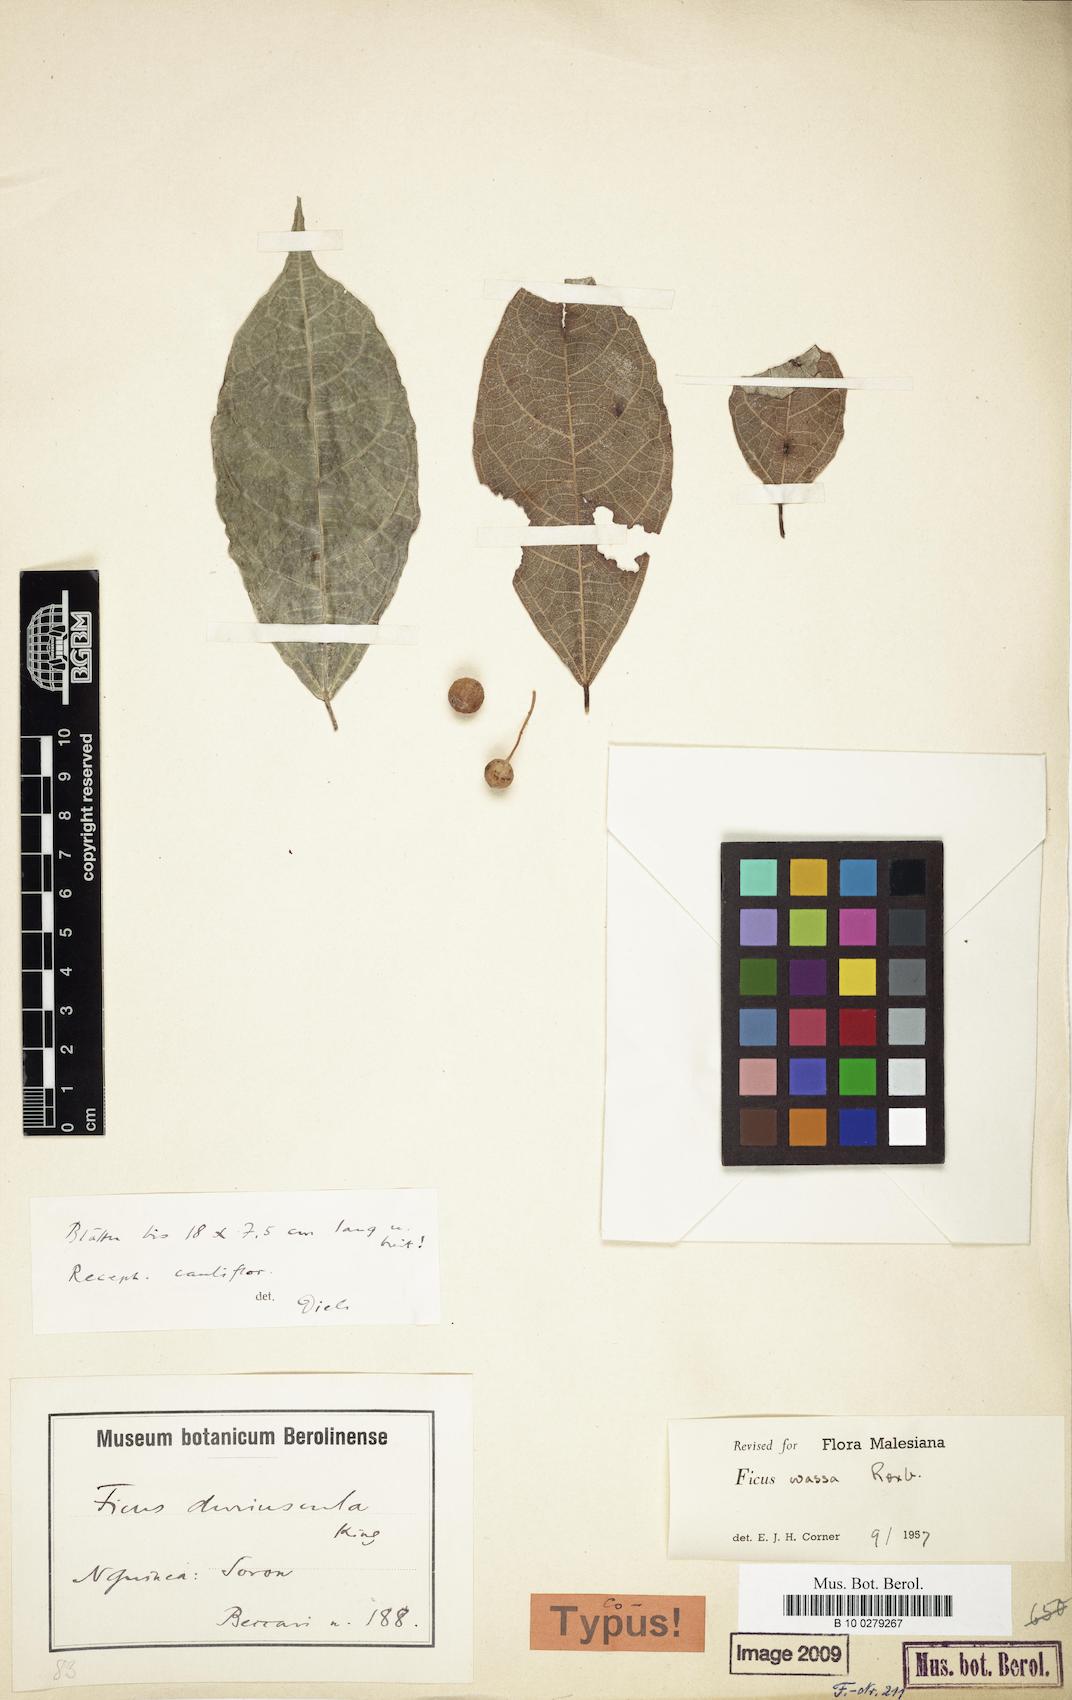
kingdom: Plantae
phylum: Tracheophyta
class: Magnoliopsida
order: Rosales
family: Moraceae
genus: Ficus
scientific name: Ficus wassa
